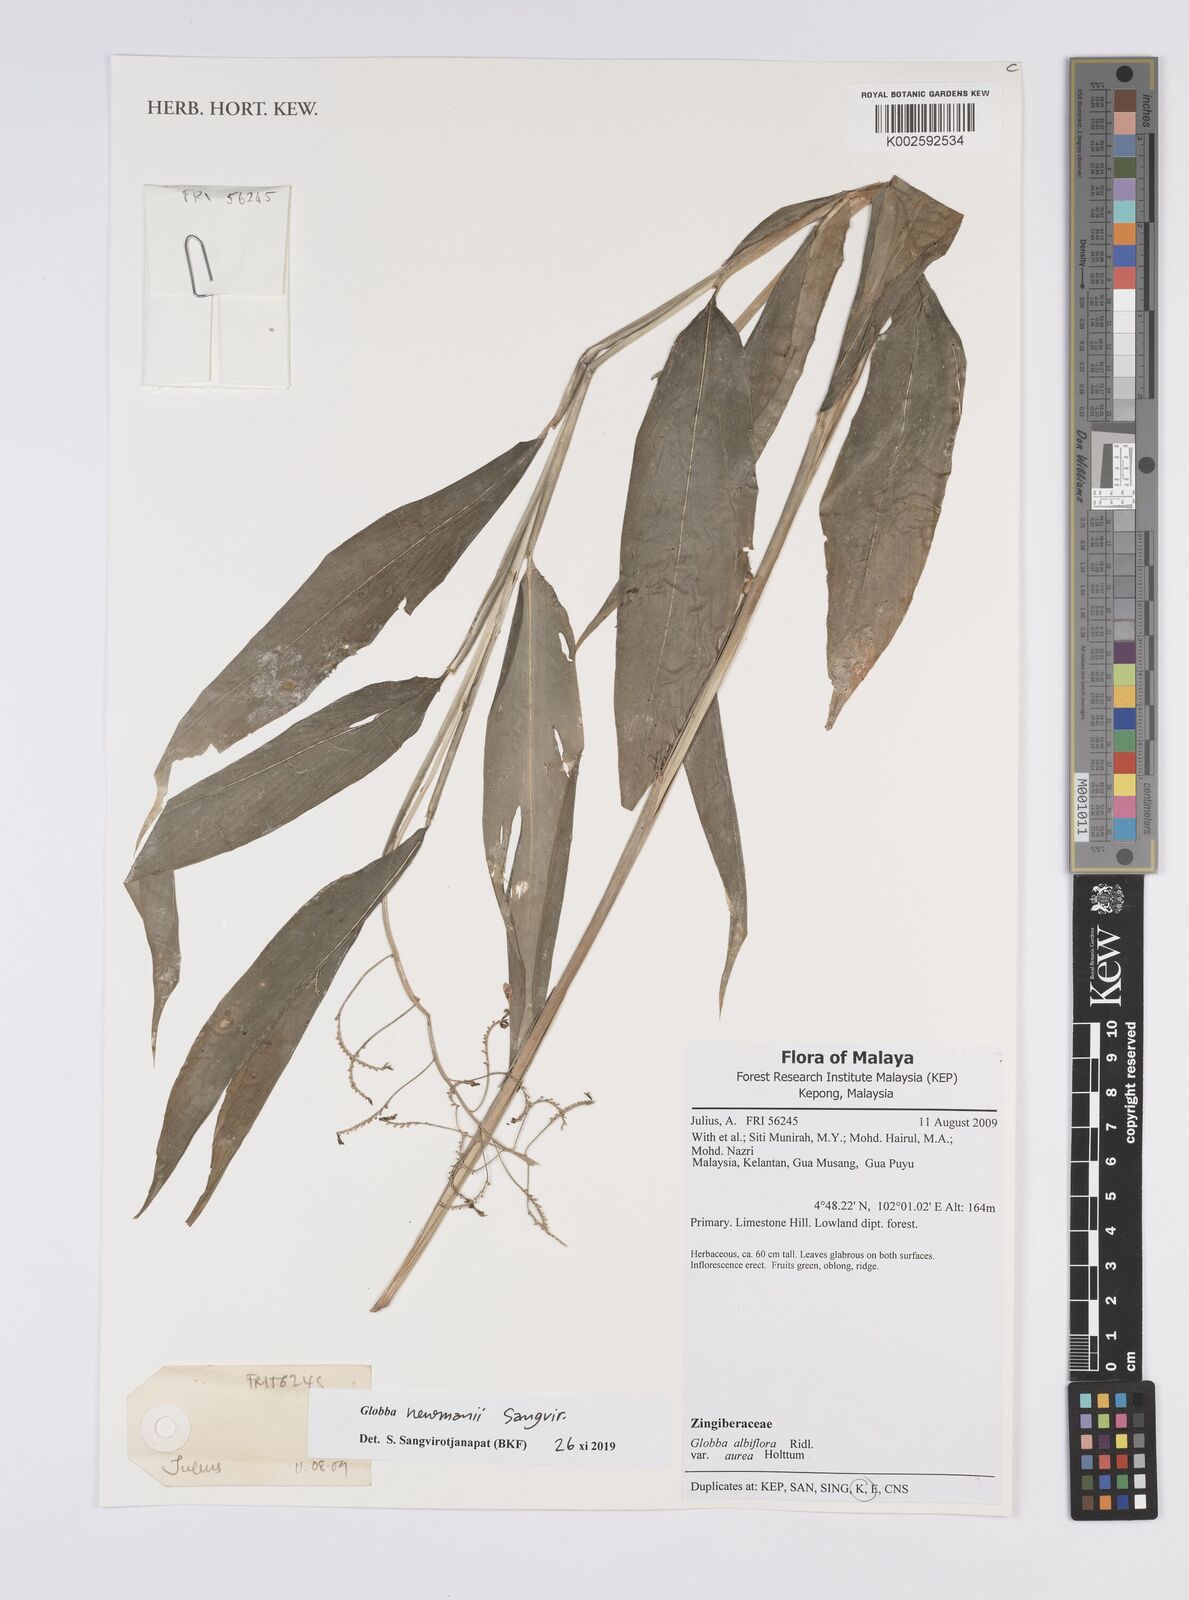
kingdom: Plantae
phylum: Tracheophyta
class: Liliopsida
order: Zingiberales
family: Zingiberaceae
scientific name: Zingiberaceae
